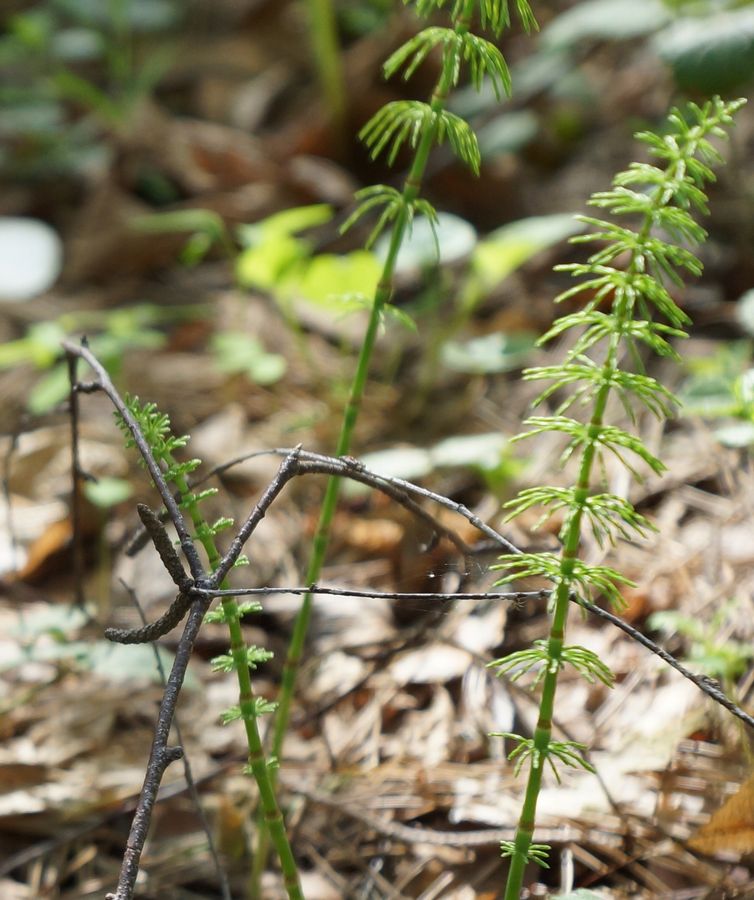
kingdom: Plantae
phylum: Tracheophyta
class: Polypodiopsida
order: Equisetales
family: Equisetaceae
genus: Equisetum
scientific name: Equisetum
